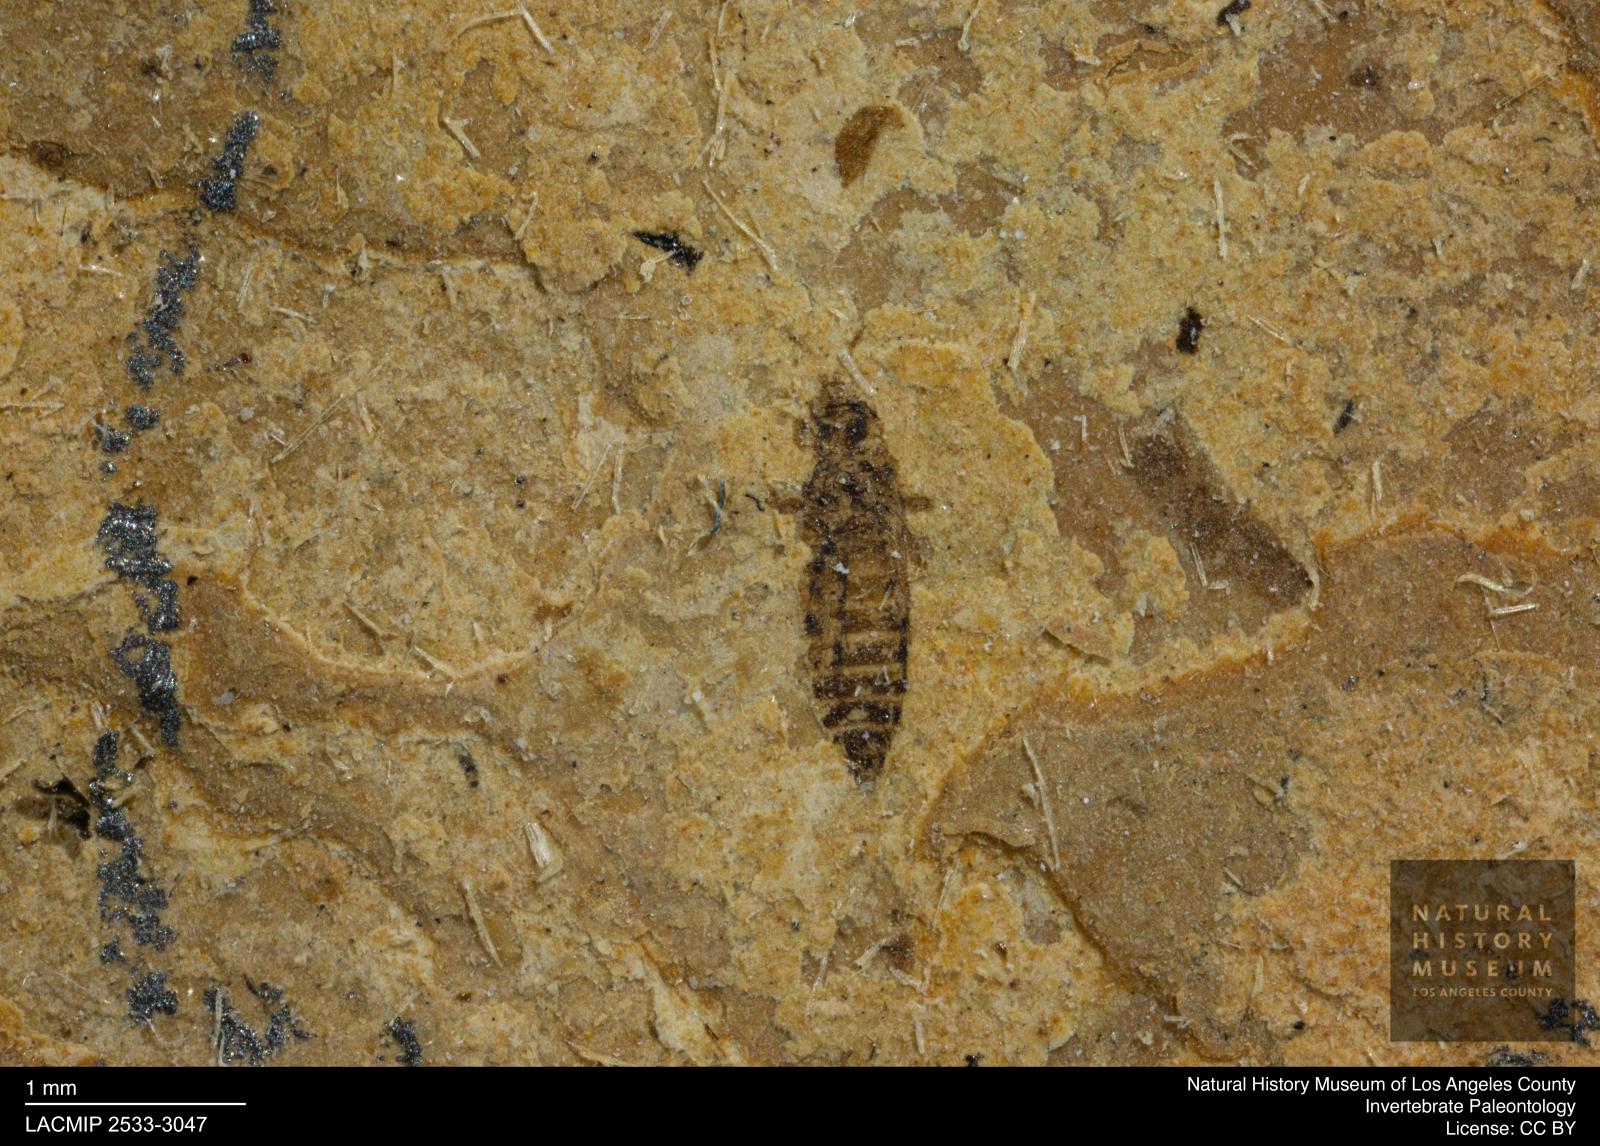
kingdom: Animalia
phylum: Arthropoda
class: Insecta
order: Thysanoptera
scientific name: Thysanoptera
